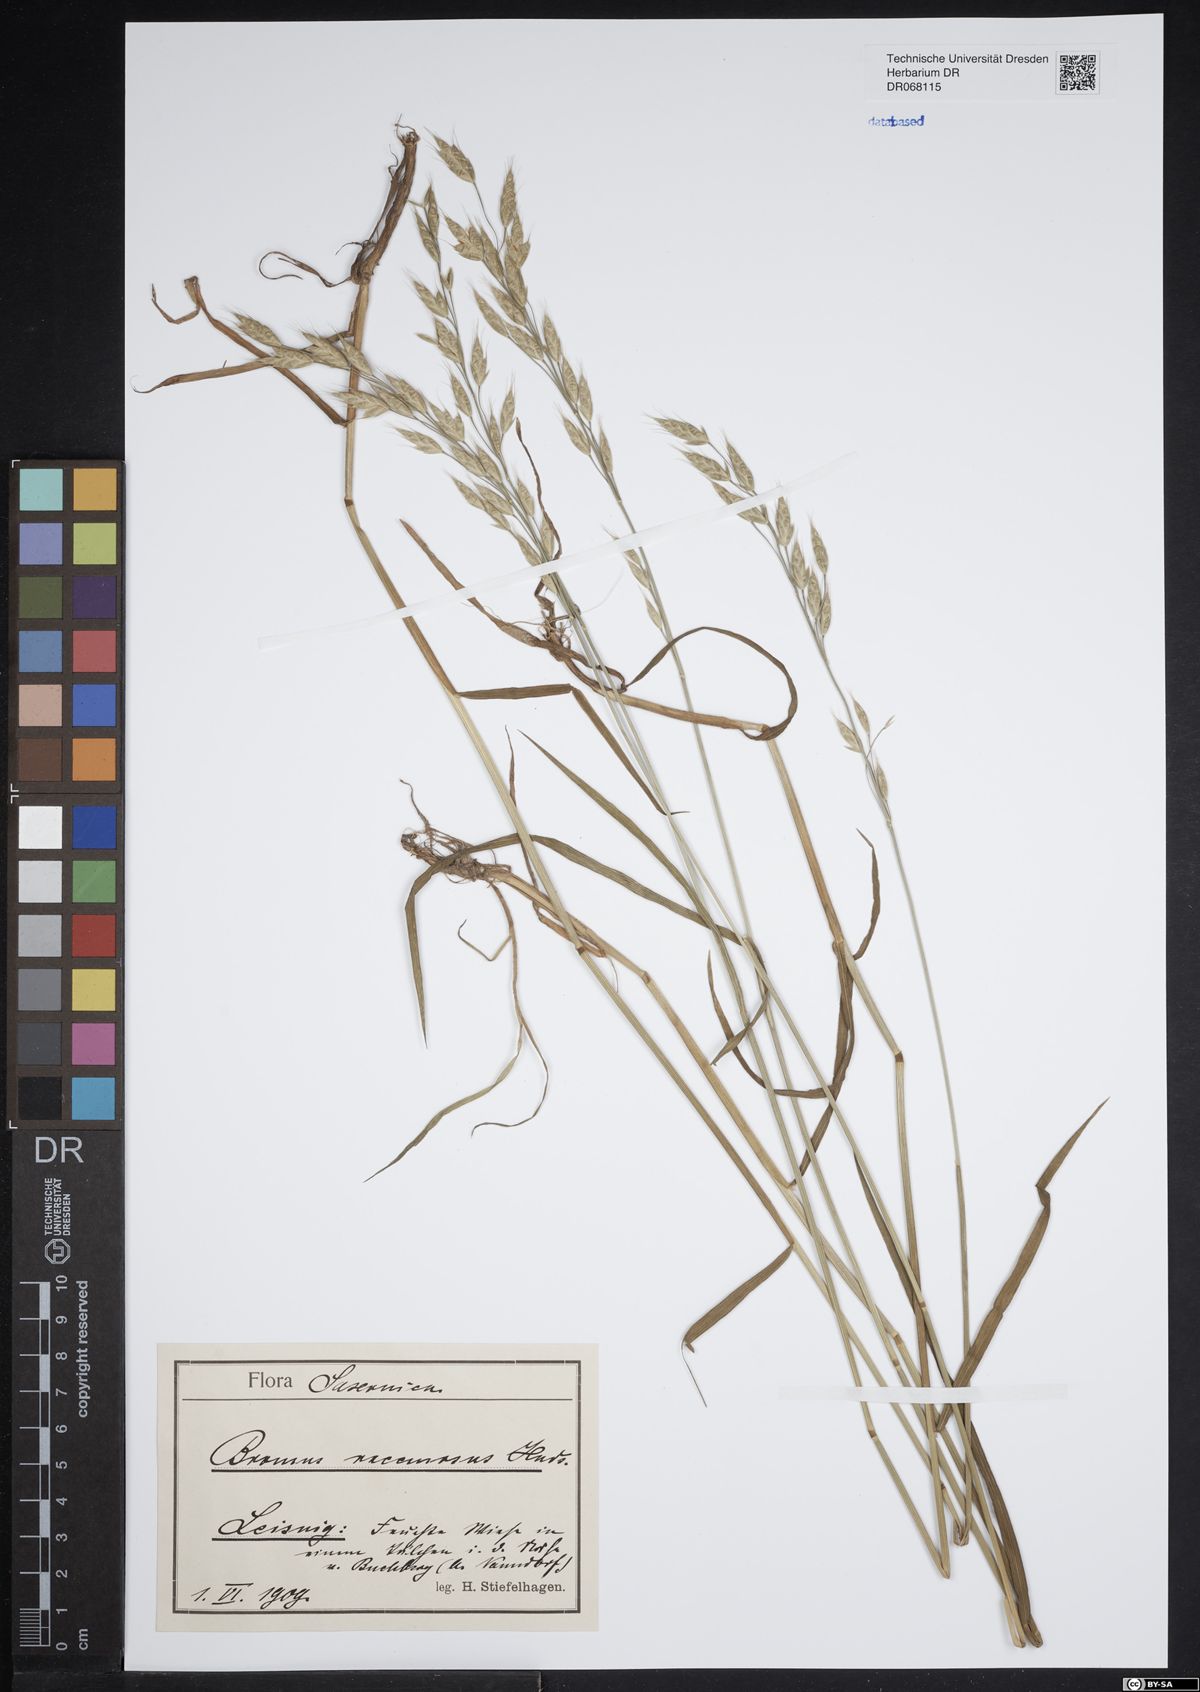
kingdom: Plantae
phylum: Tracheophyta
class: Liliopsida
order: Poales
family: Poaceae
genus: Bromus
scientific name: Bromus racemosus
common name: Bald brome
